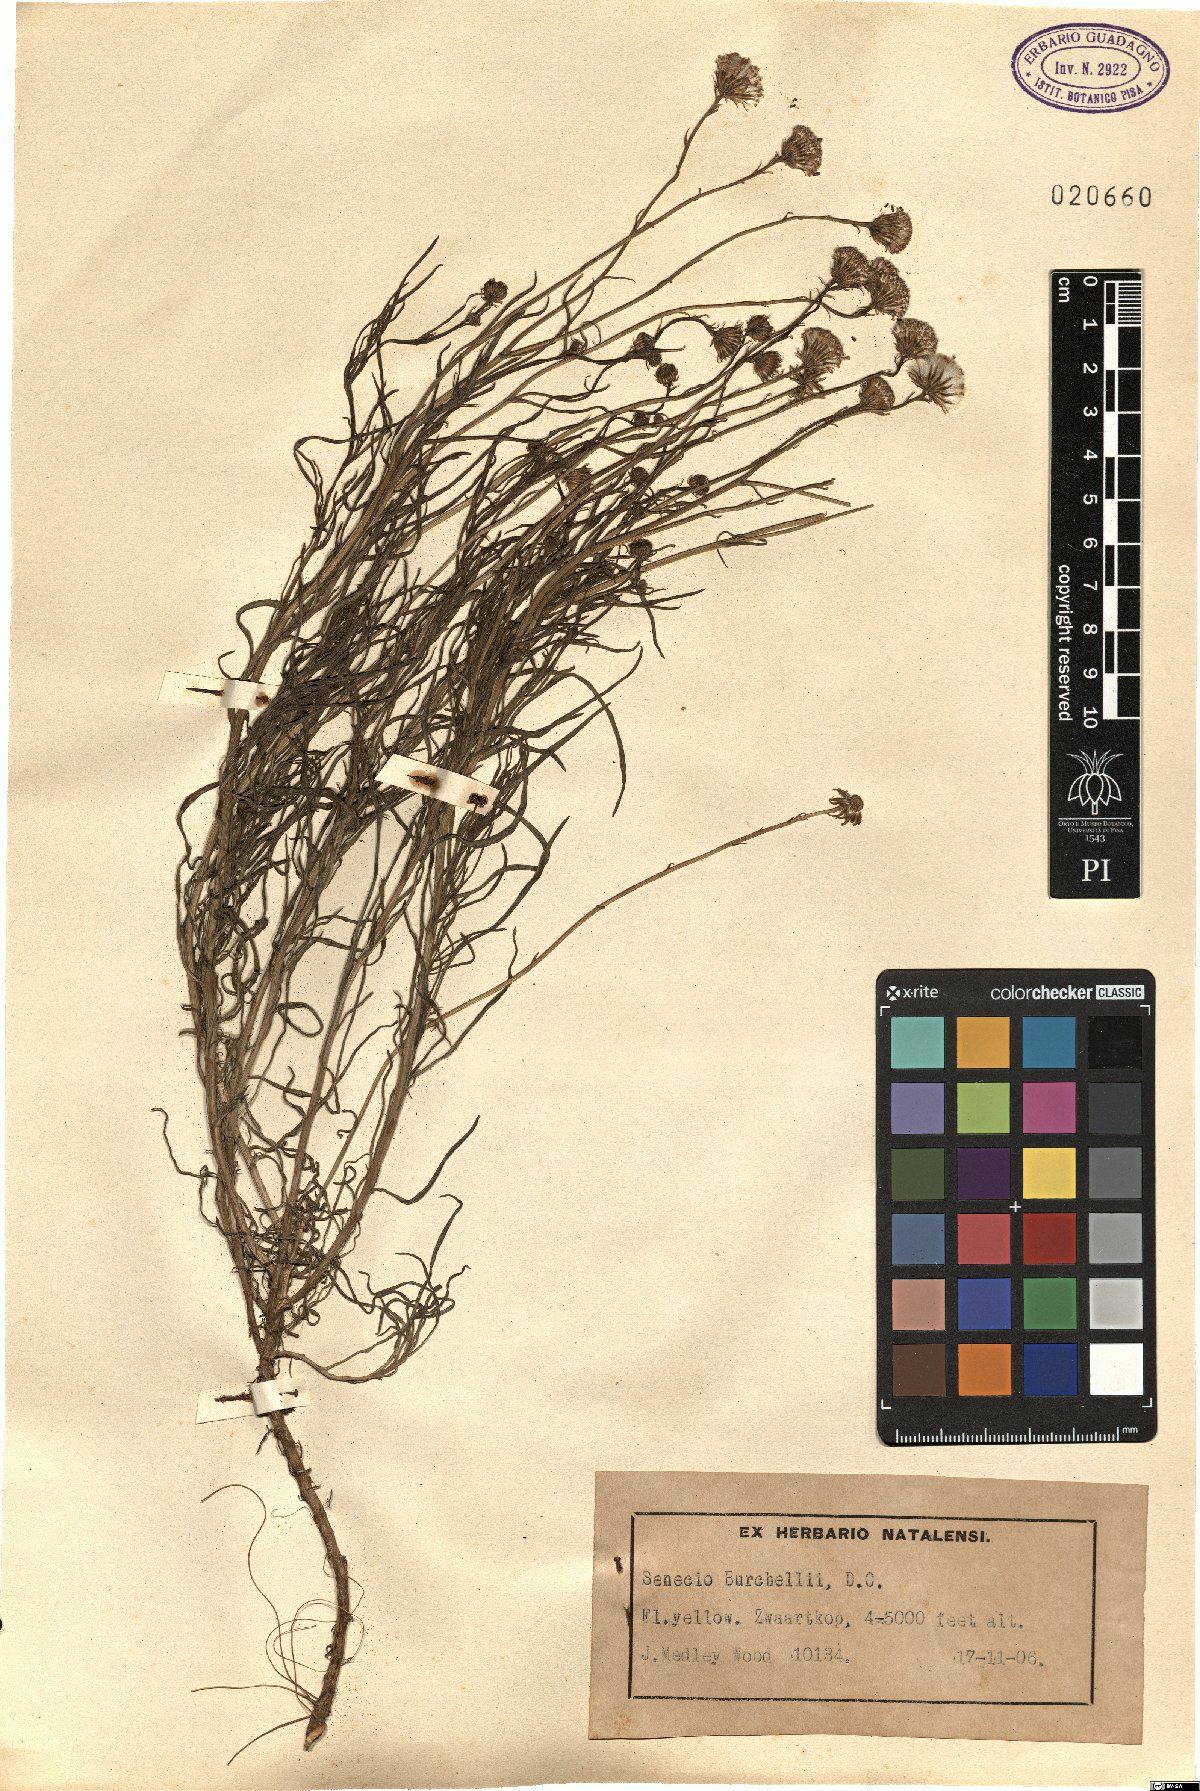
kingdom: Plantae
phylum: Tracheophyta
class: Magnoliopsida
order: Asterales
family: Asteraceae
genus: Senecio
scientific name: Senecio burchellii
